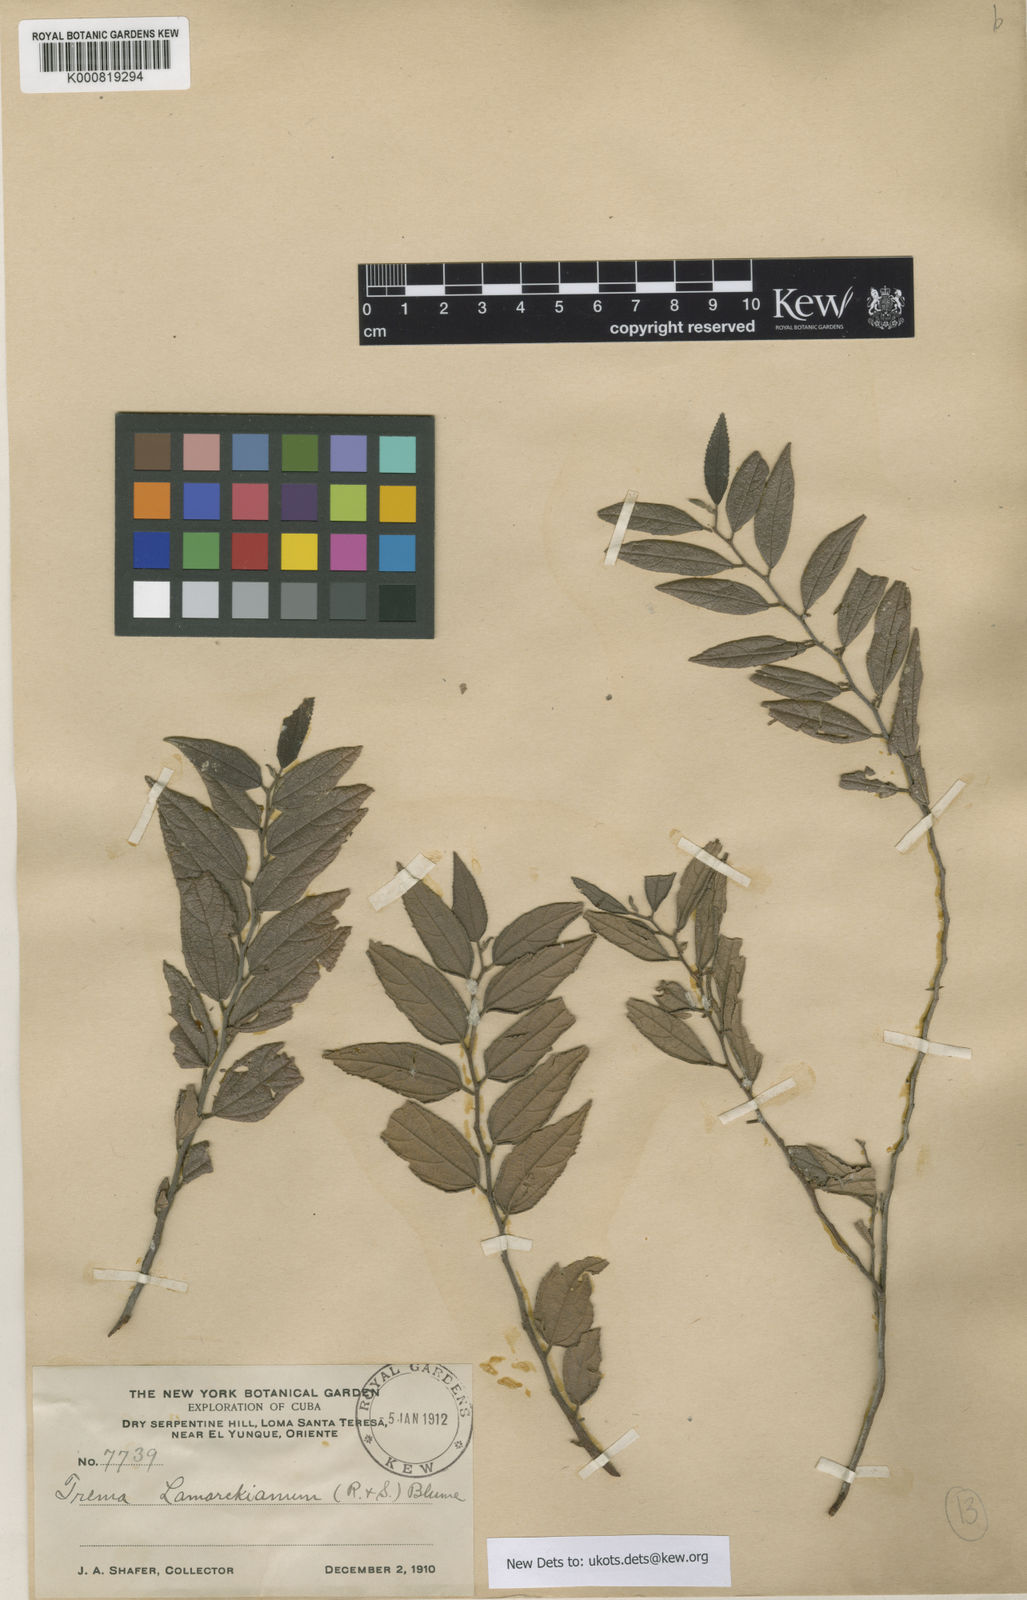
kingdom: Plantae
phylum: Tracheophyta
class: Magnoliopsida
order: Rosales
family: Cannabaceae
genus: Trema
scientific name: Trema lamarckianum
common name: Lamarck's trema
